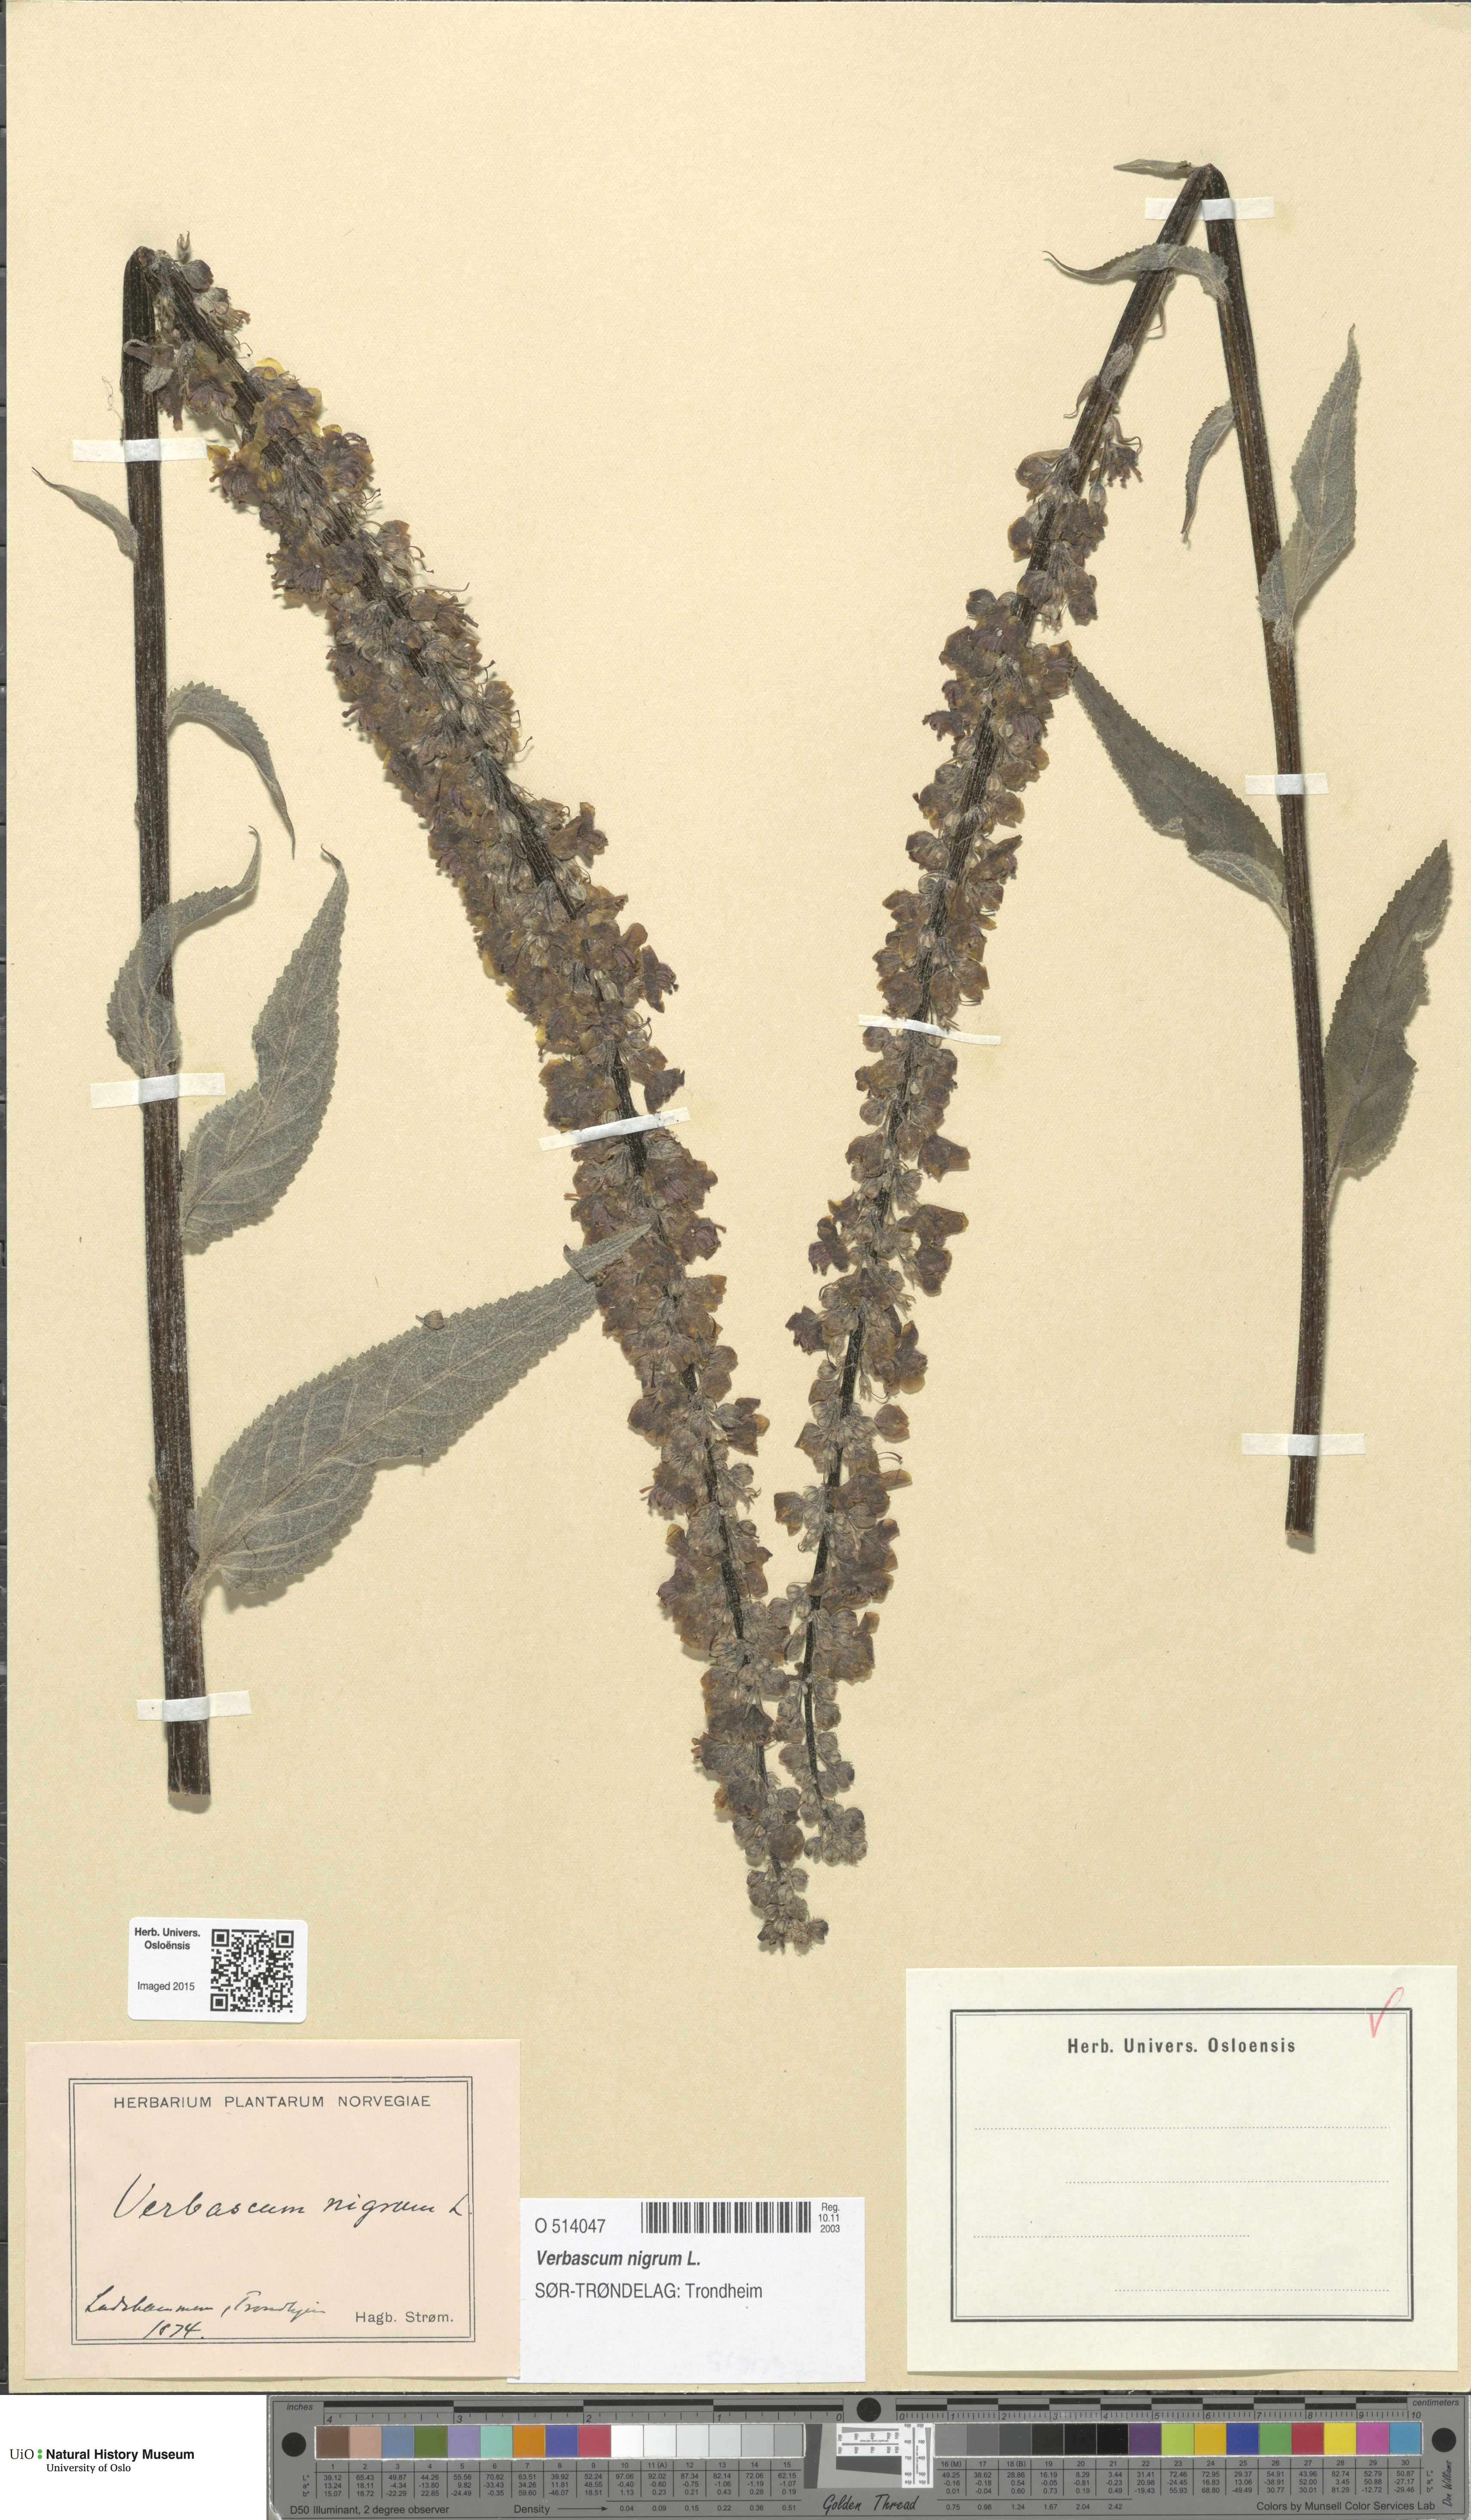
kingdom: Plantae
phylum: Tracheophyta
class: Magnoliopsida
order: Lamiales
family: Scrophulariaceae
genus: Verbascum
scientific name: Verbascum nigrum
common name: Dark mullein
